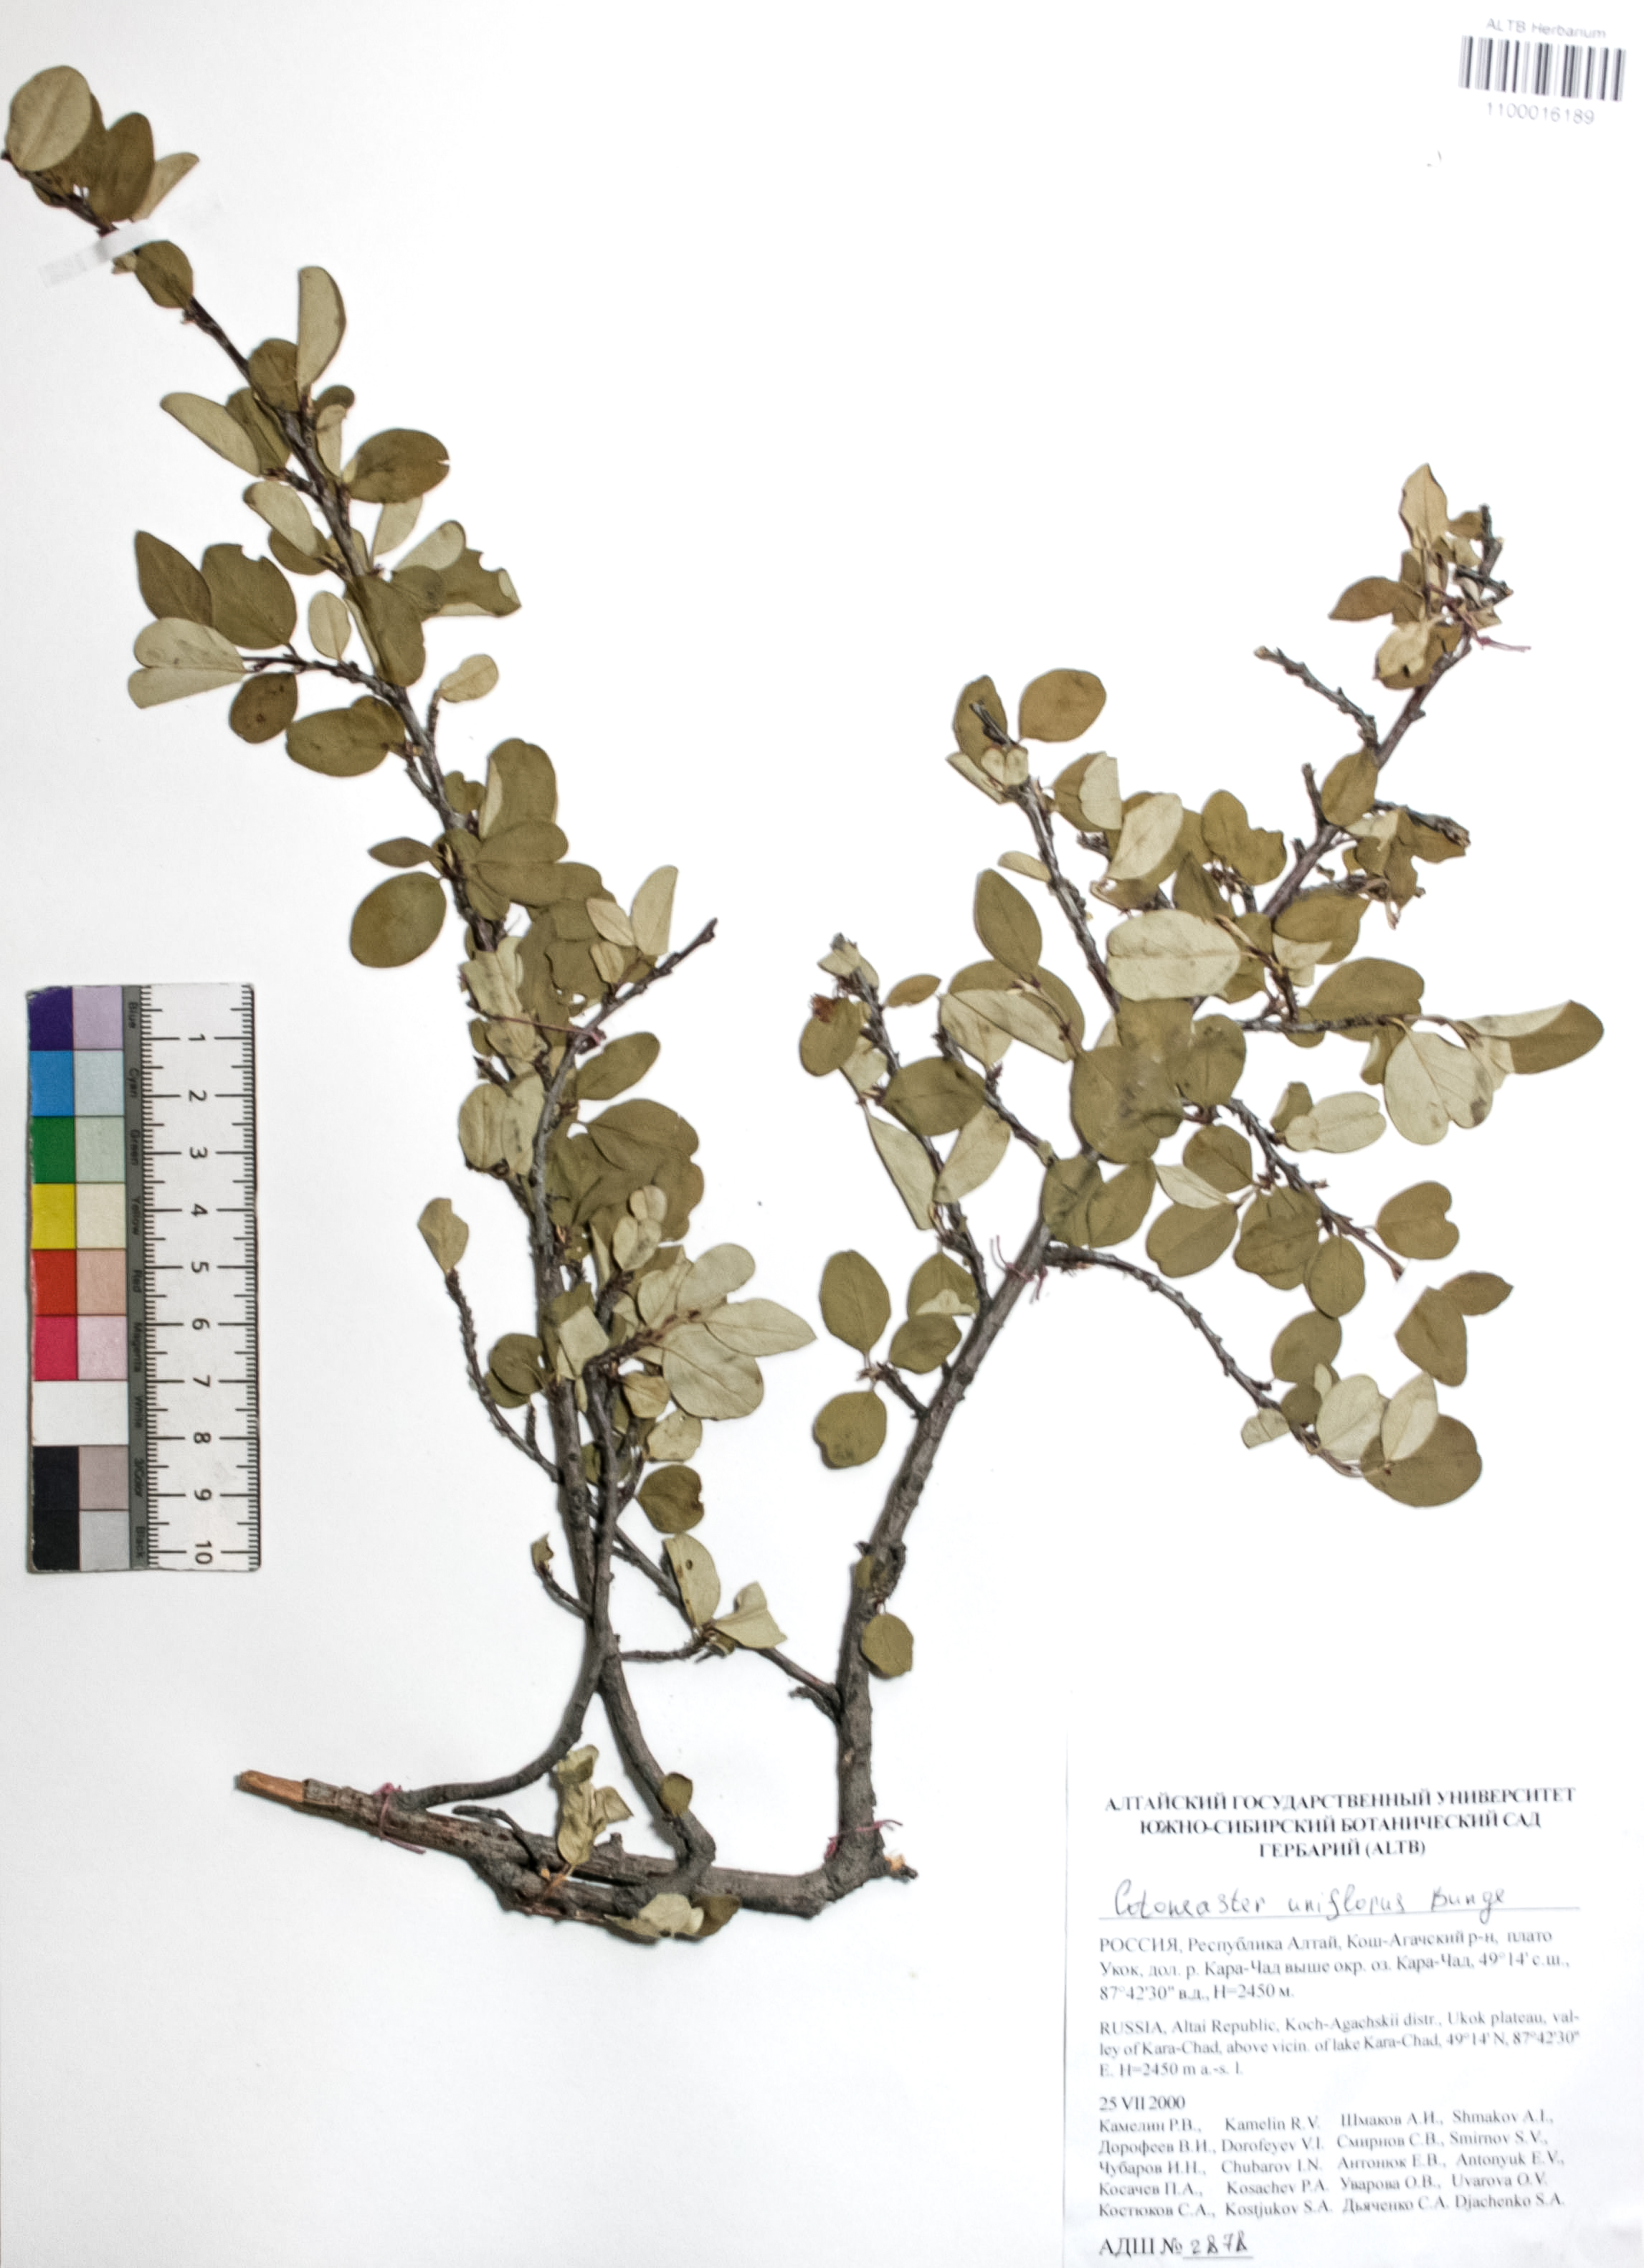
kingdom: Plantae
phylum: Tracheophyta
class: Magnoliopsida
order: Rosales
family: Rosaceae
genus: Cotoneaster
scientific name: Cotoneaster uniflorus
